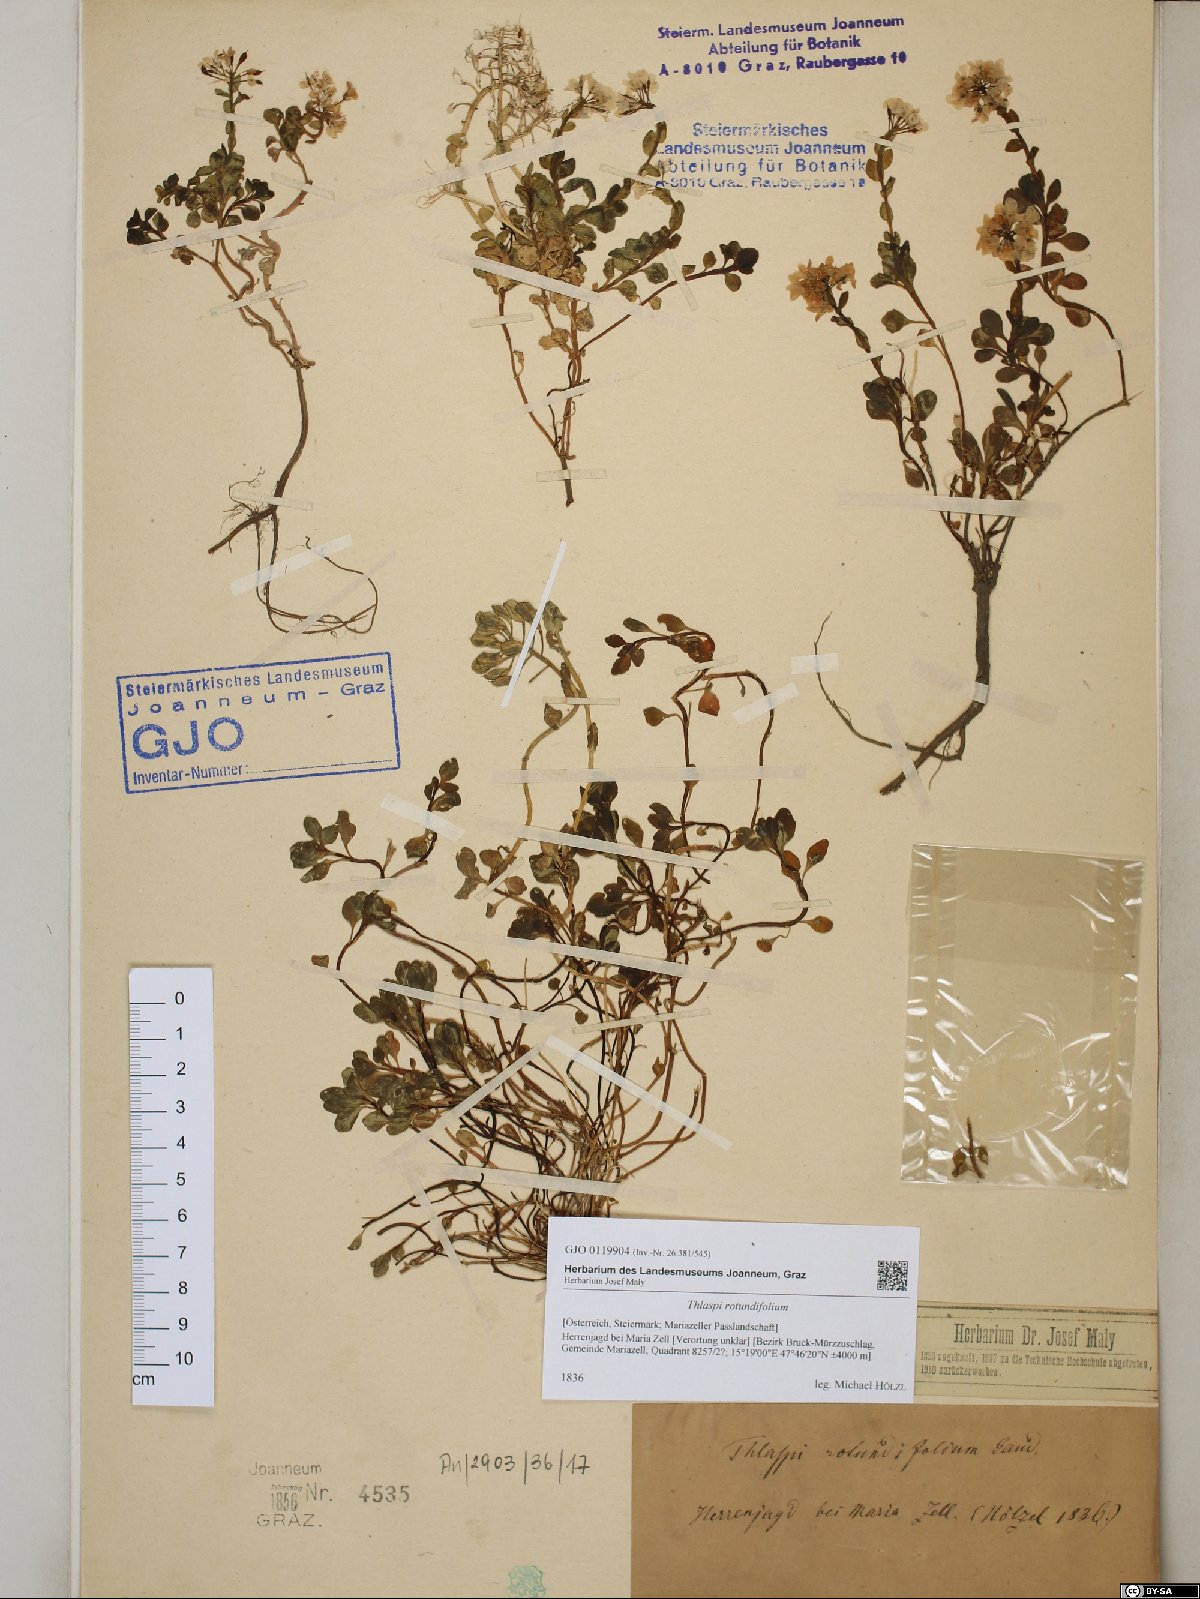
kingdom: Plantae
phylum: Tracheophyta
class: Magnoliopsida
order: Brassicales
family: Brassicaceae
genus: Noccaea
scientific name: Noccaea rotundifolia
